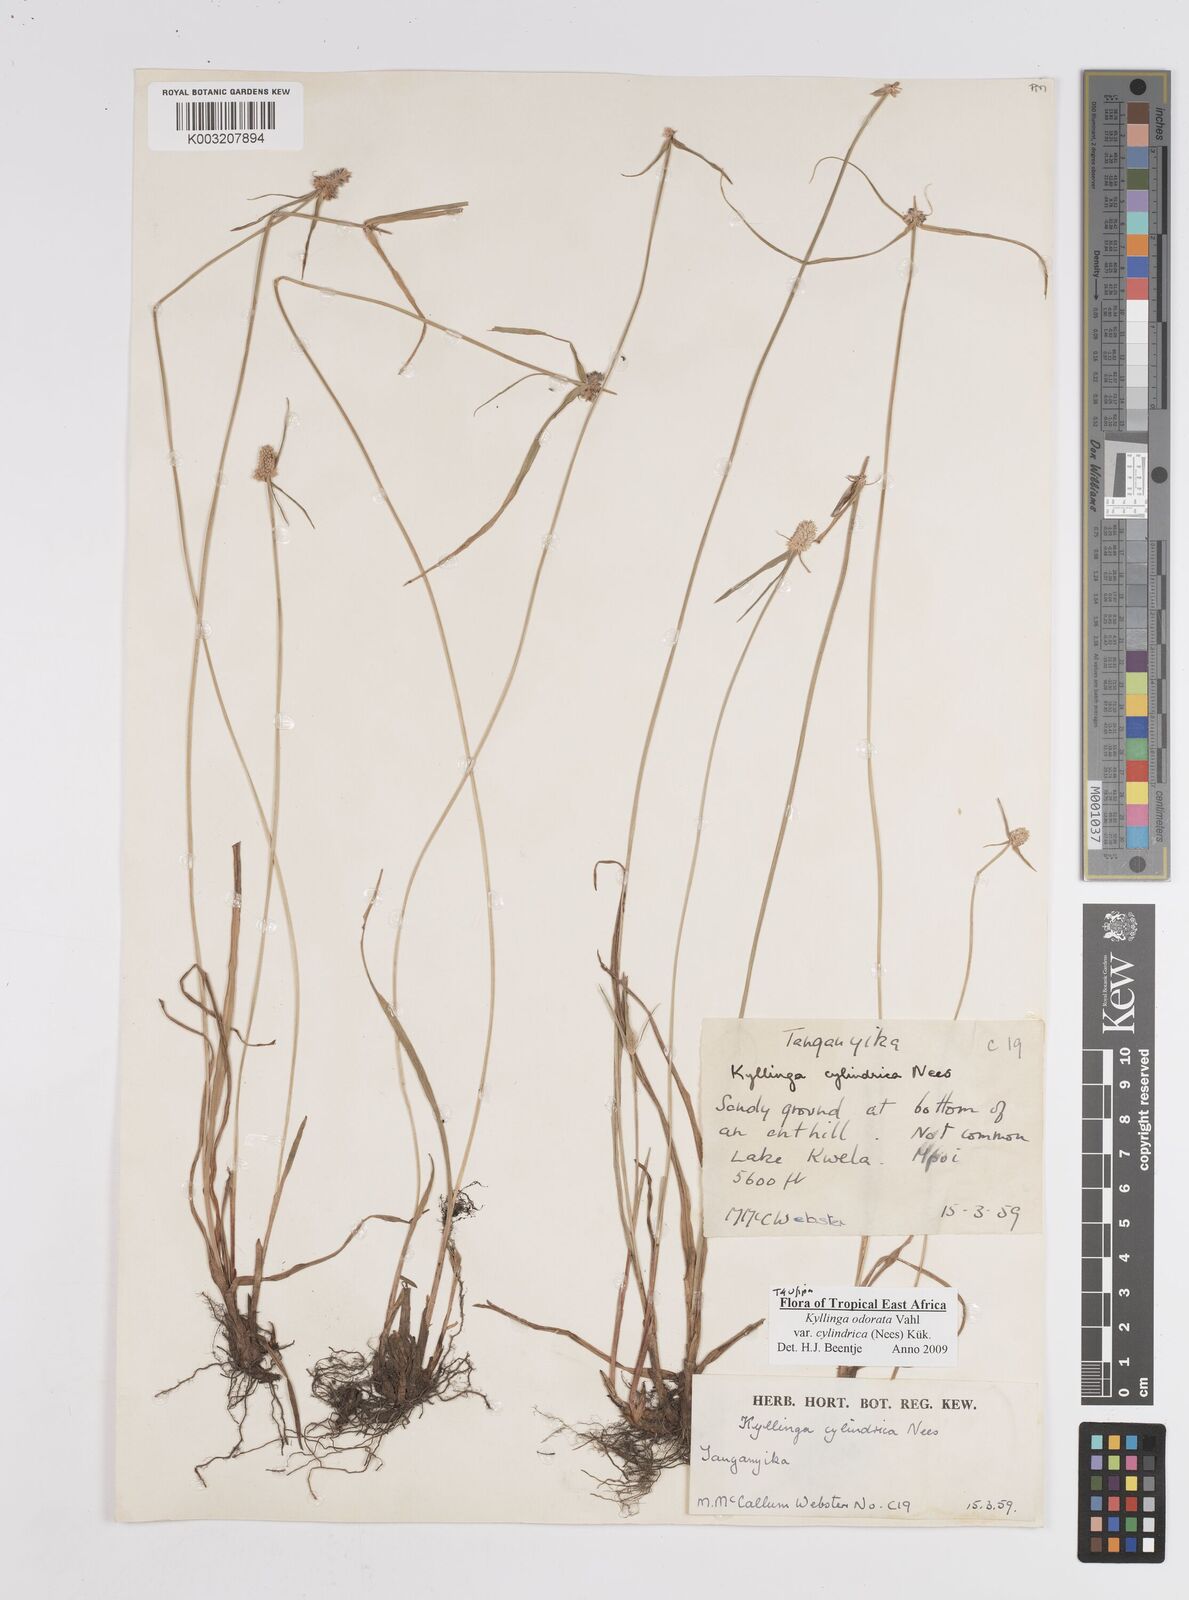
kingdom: Plantae
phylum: Tracheophyta
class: Liliopsida
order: Poales
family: Cyperaceae
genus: Cyperus
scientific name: Cyperus
